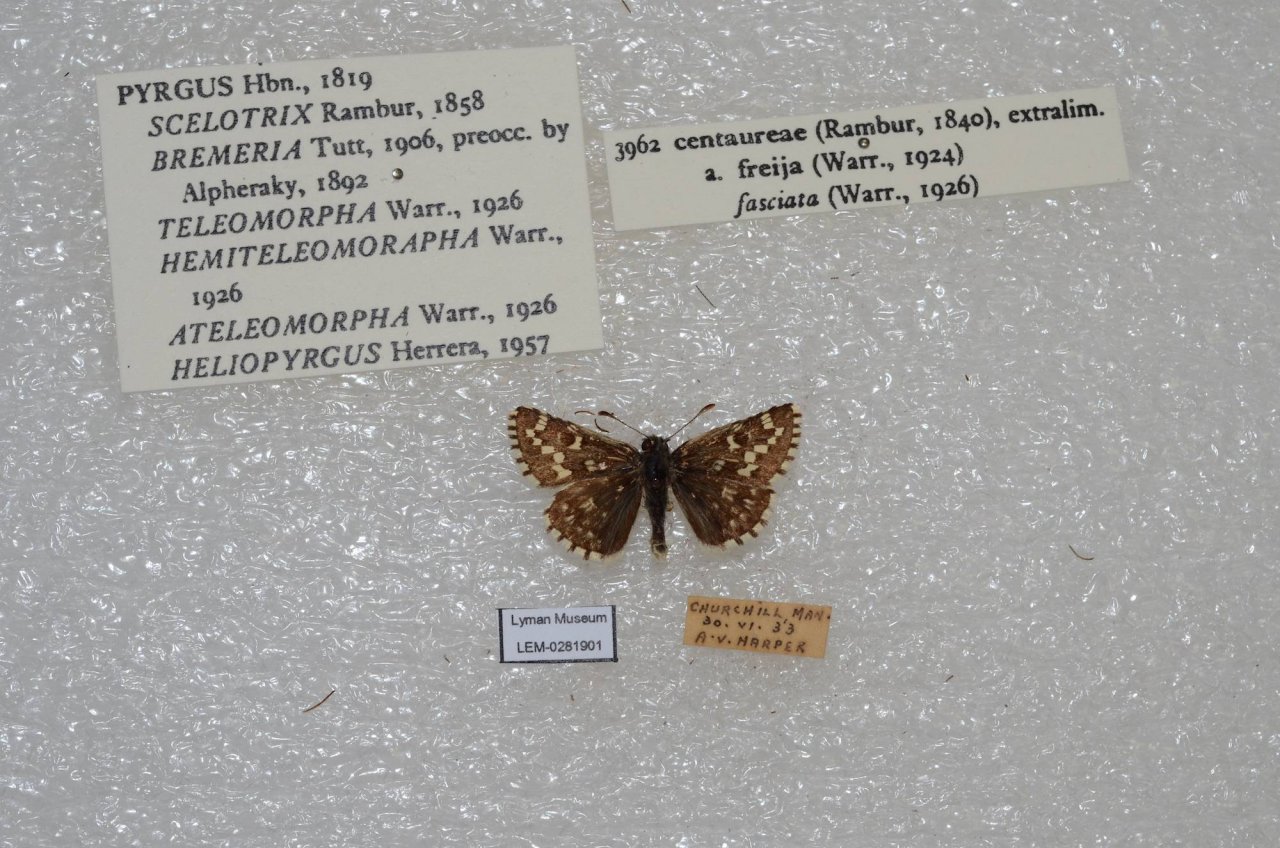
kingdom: Animalia
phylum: Arthropoda
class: Insecta
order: Lepidoptera
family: Hesperiidae
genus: Pyrgus
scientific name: Pyrgus centaureae
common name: Grizzled Skipper
